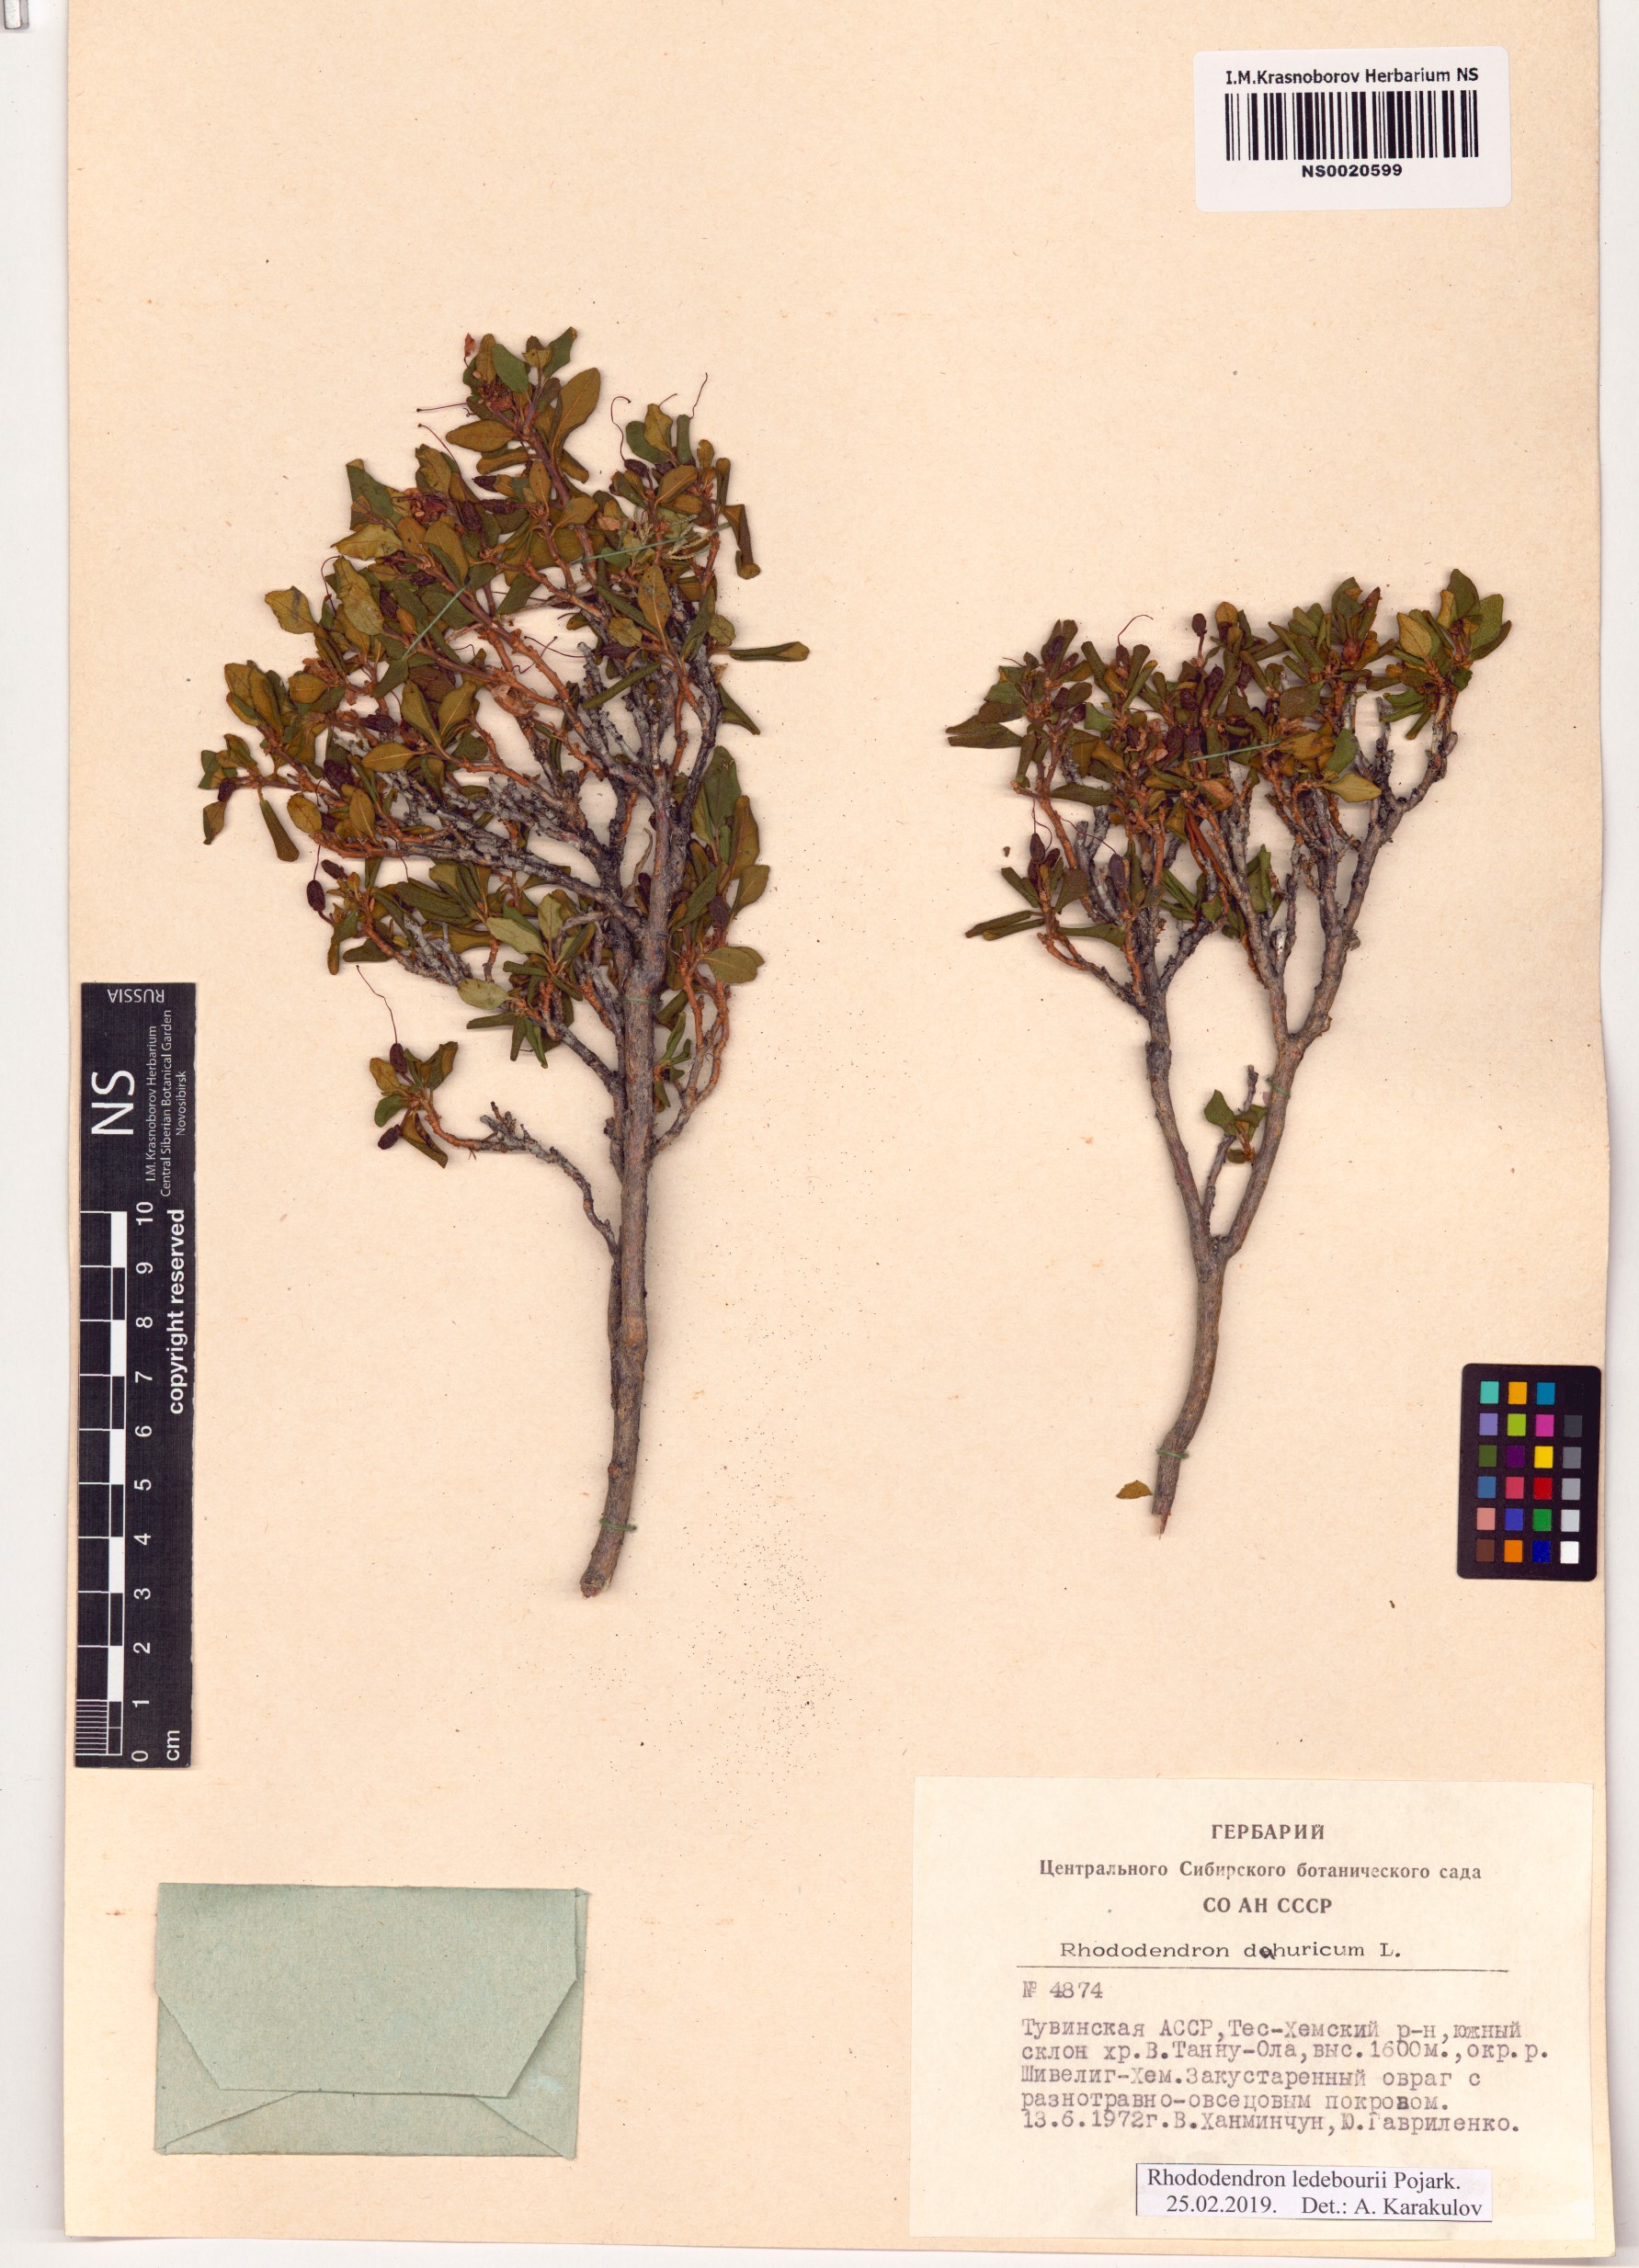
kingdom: Plantae
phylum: Tracheophyta
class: Magnoliopsida
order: Ericales
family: Ericaceae
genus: Rhododendron
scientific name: Rhododendron dauricum
